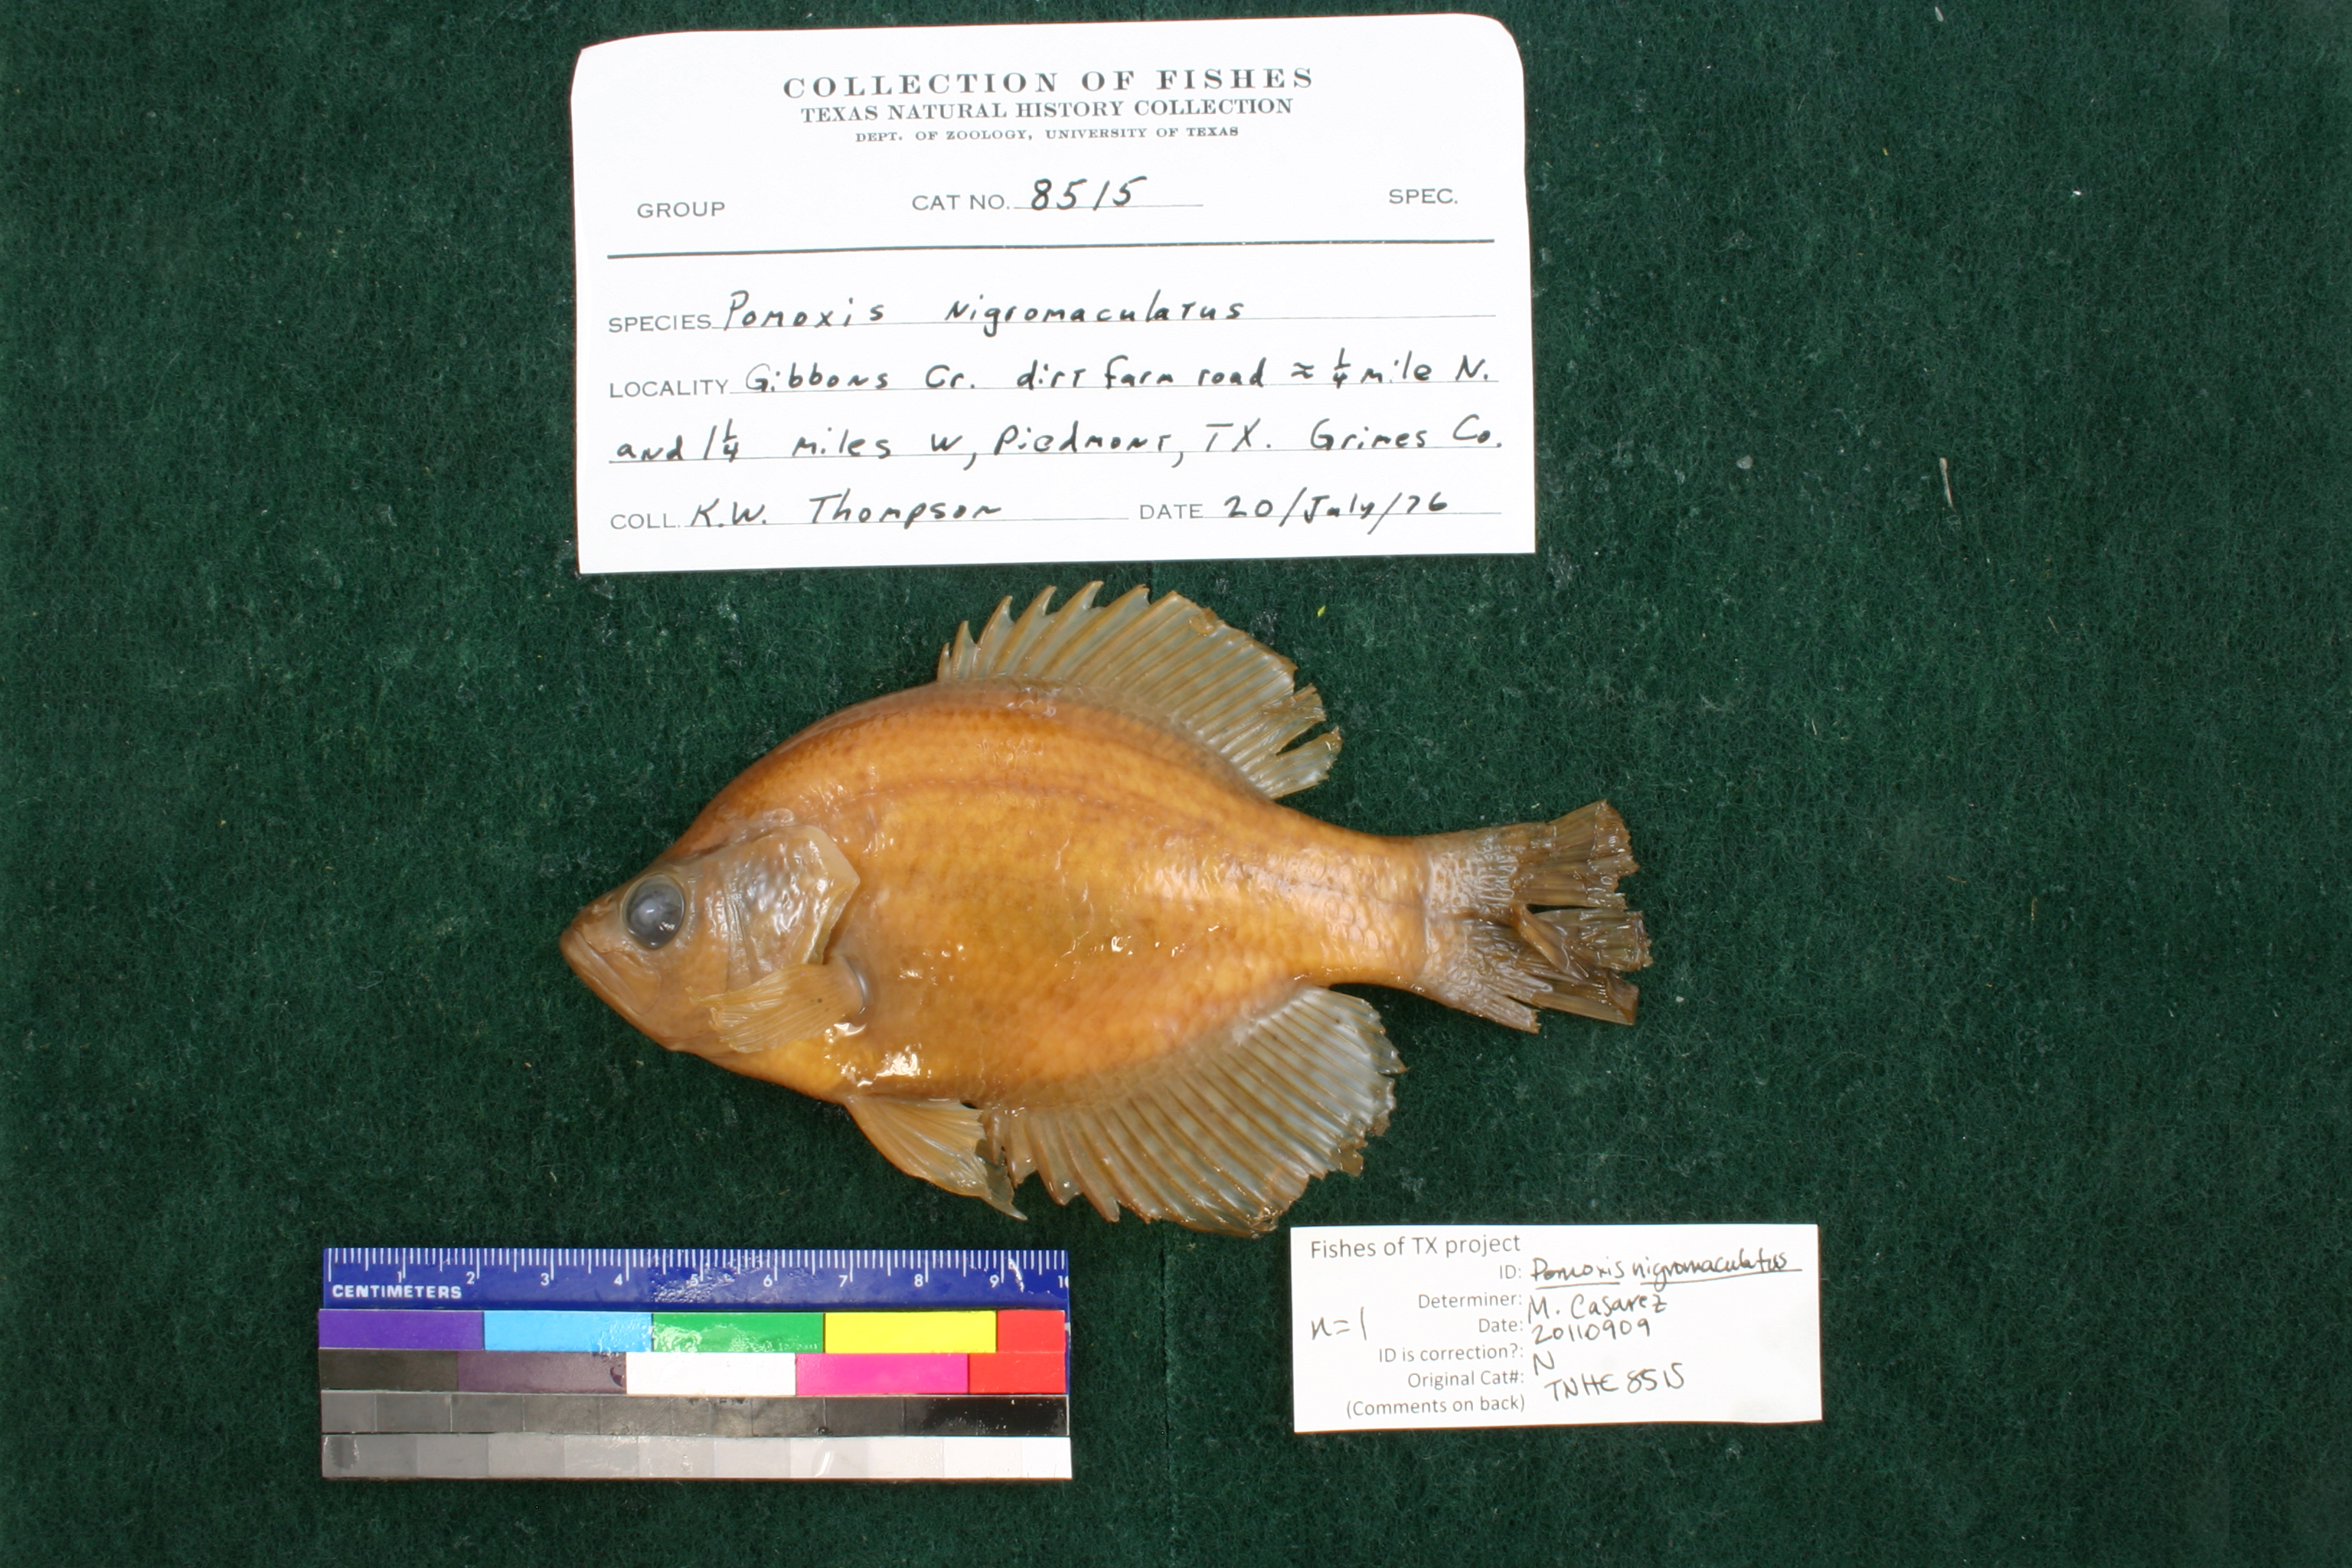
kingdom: Animalia
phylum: Chordata
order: Perciformes
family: Centrarchidae
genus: Pomoxis
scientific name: Pomoxis nigromaculatus
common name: Black crappie
